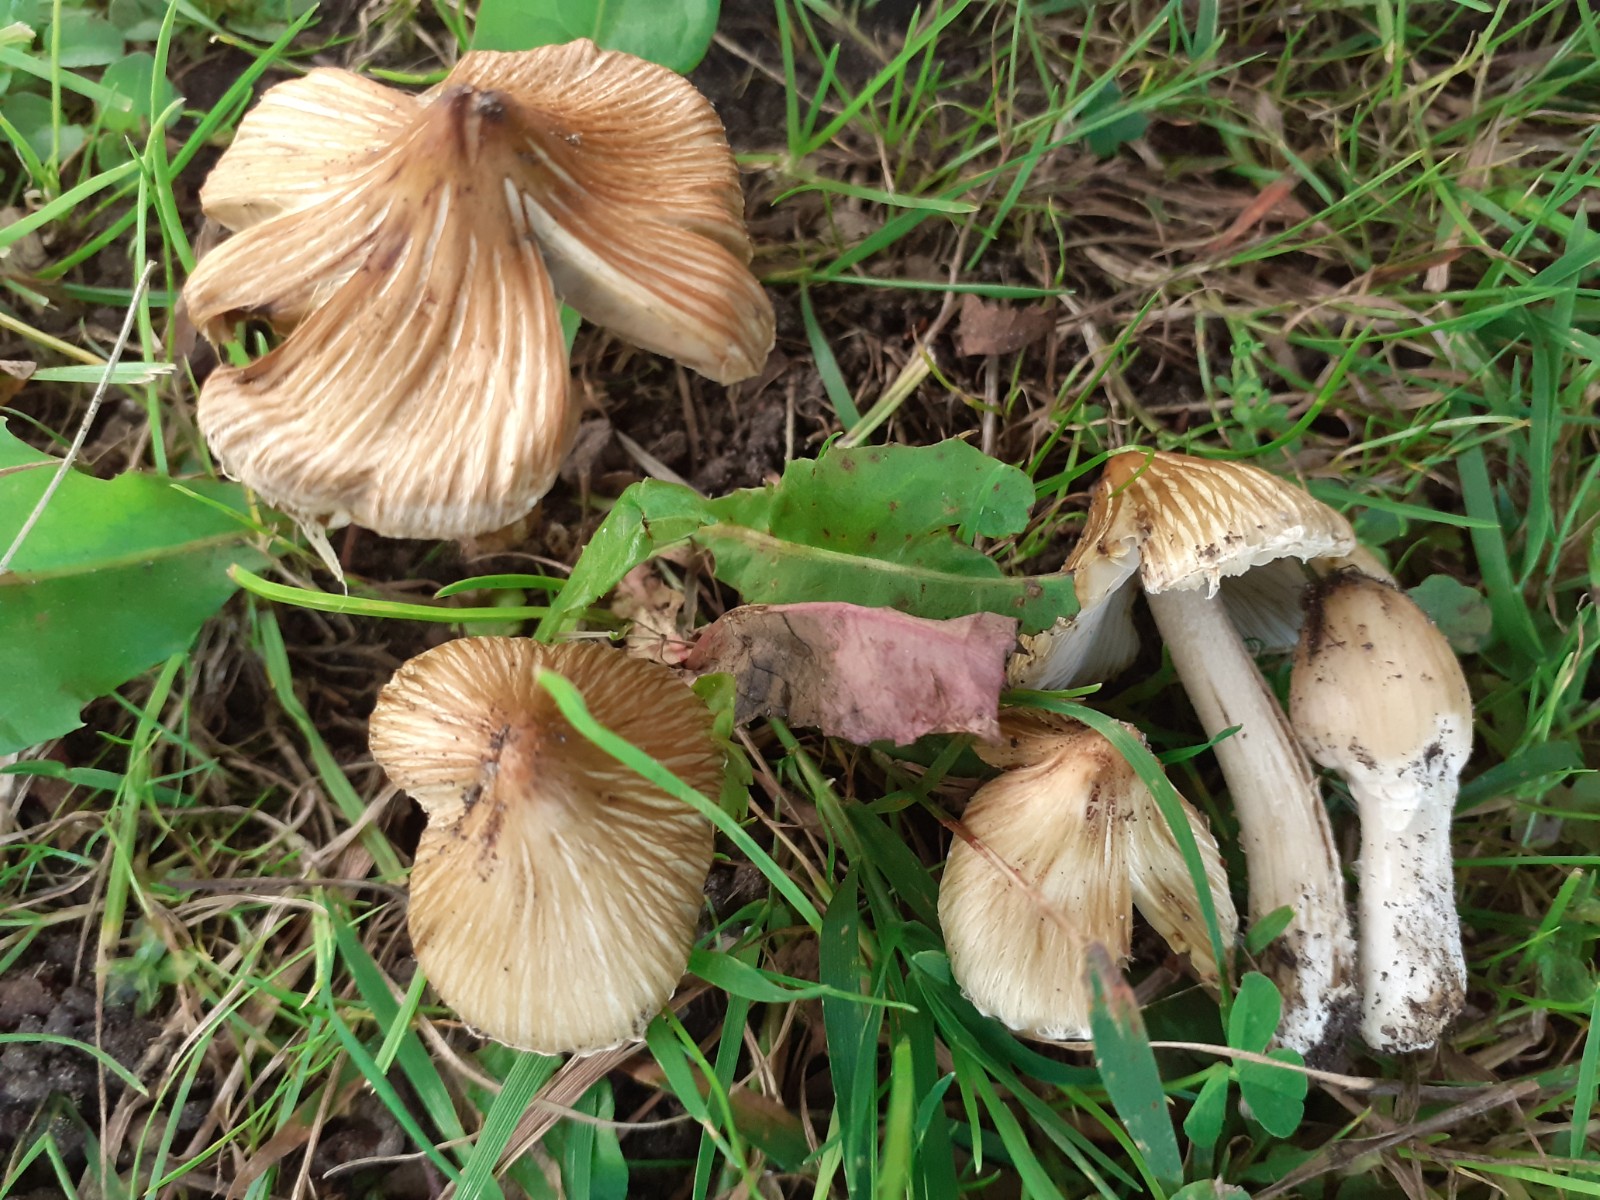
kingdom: Fungi
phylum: Basidiomycota
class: Agaricomycetes
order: Agaricales
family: Inocybaceae
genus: Pseudosperma
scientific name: Pseudosperma rimosum
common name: gulbladet trævlhat
